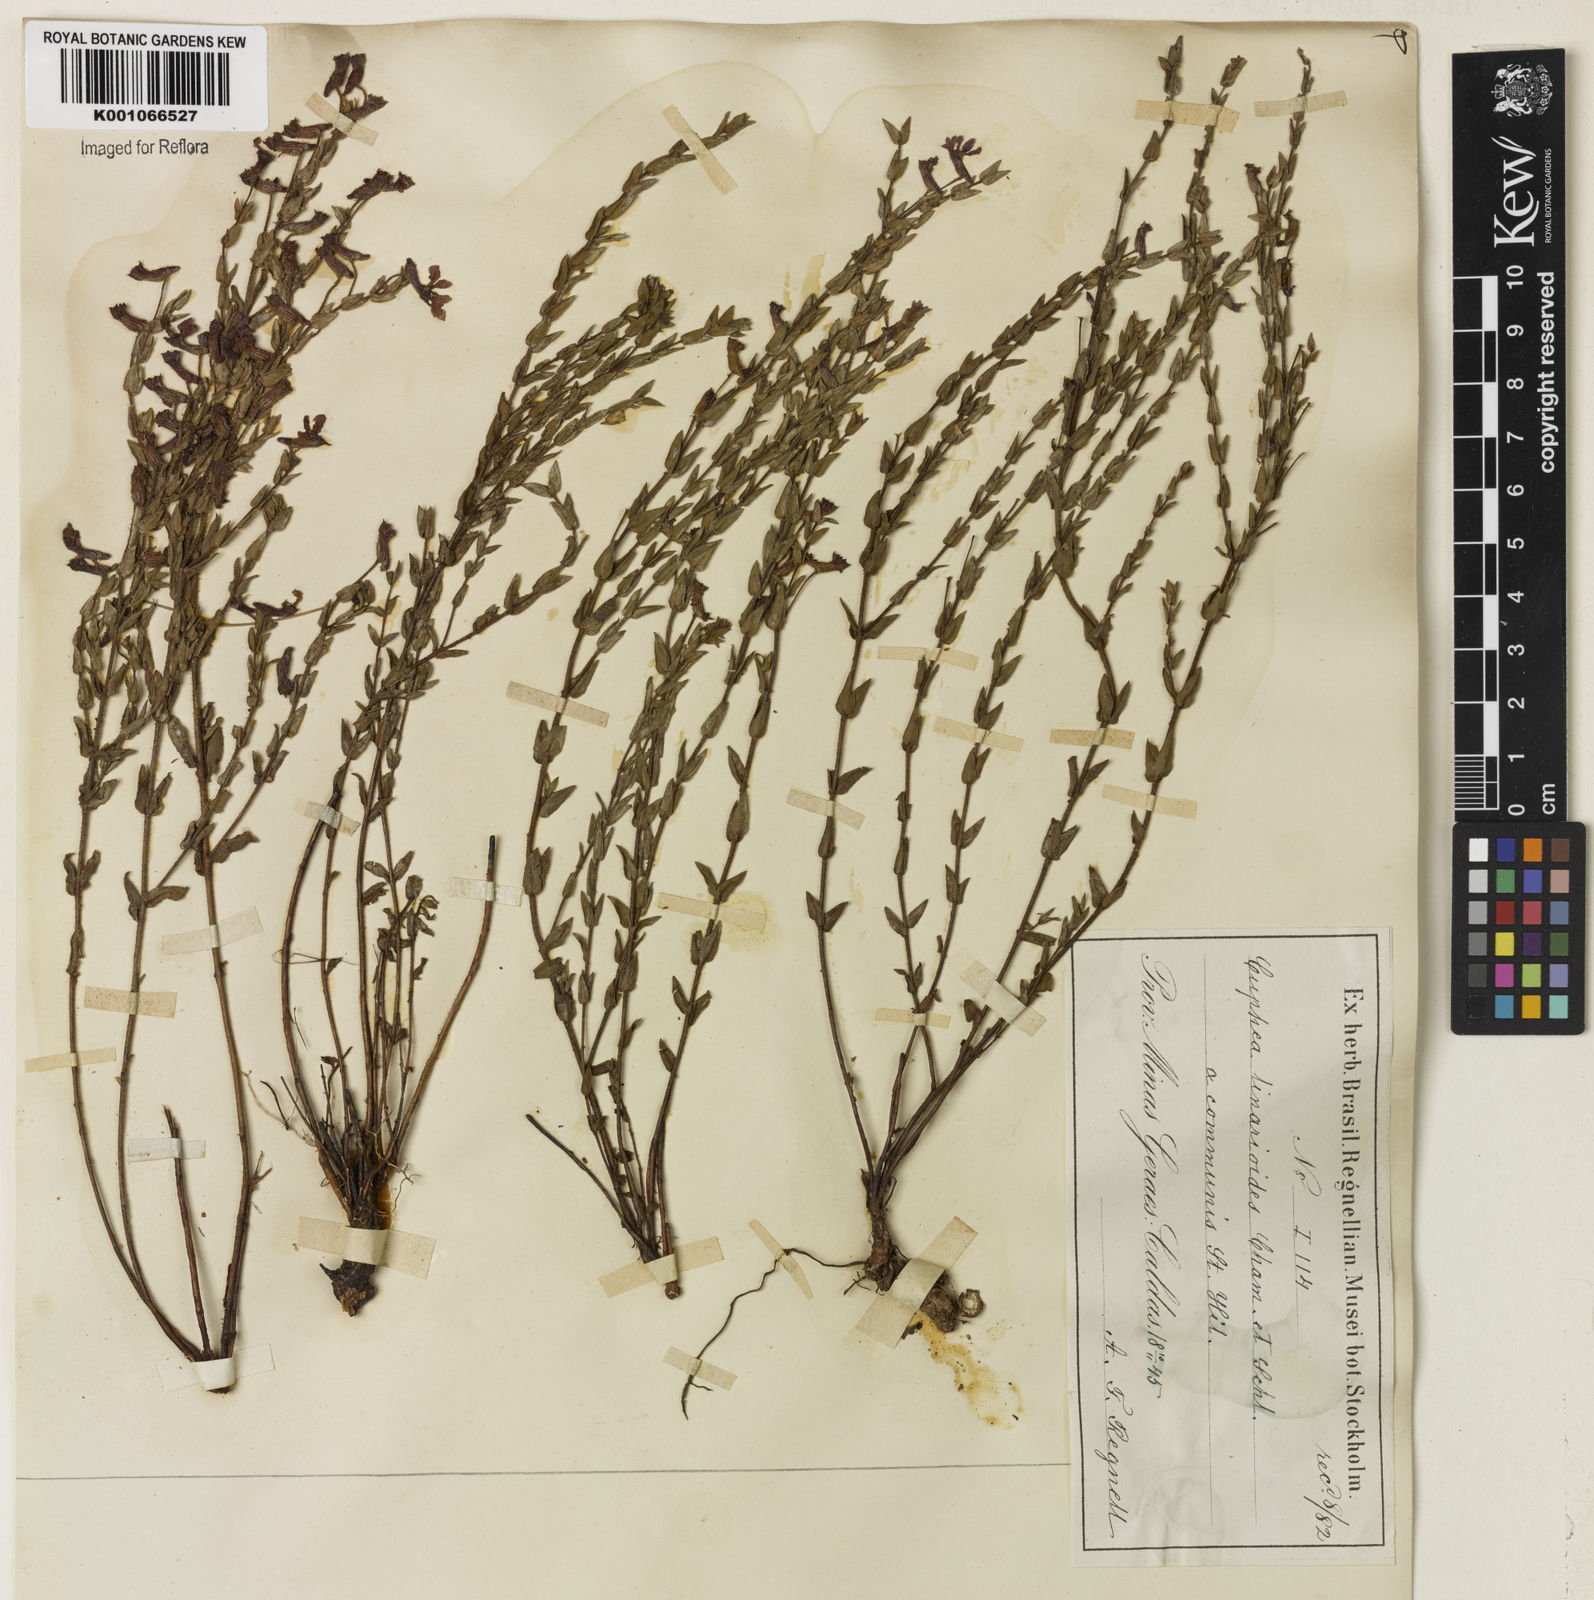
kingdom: Plantae
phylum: Tracheophyta
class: Magnoliopsida
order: Myrtales
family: Lythraceae
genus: Cuphea
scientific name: Cuphea linarioides
